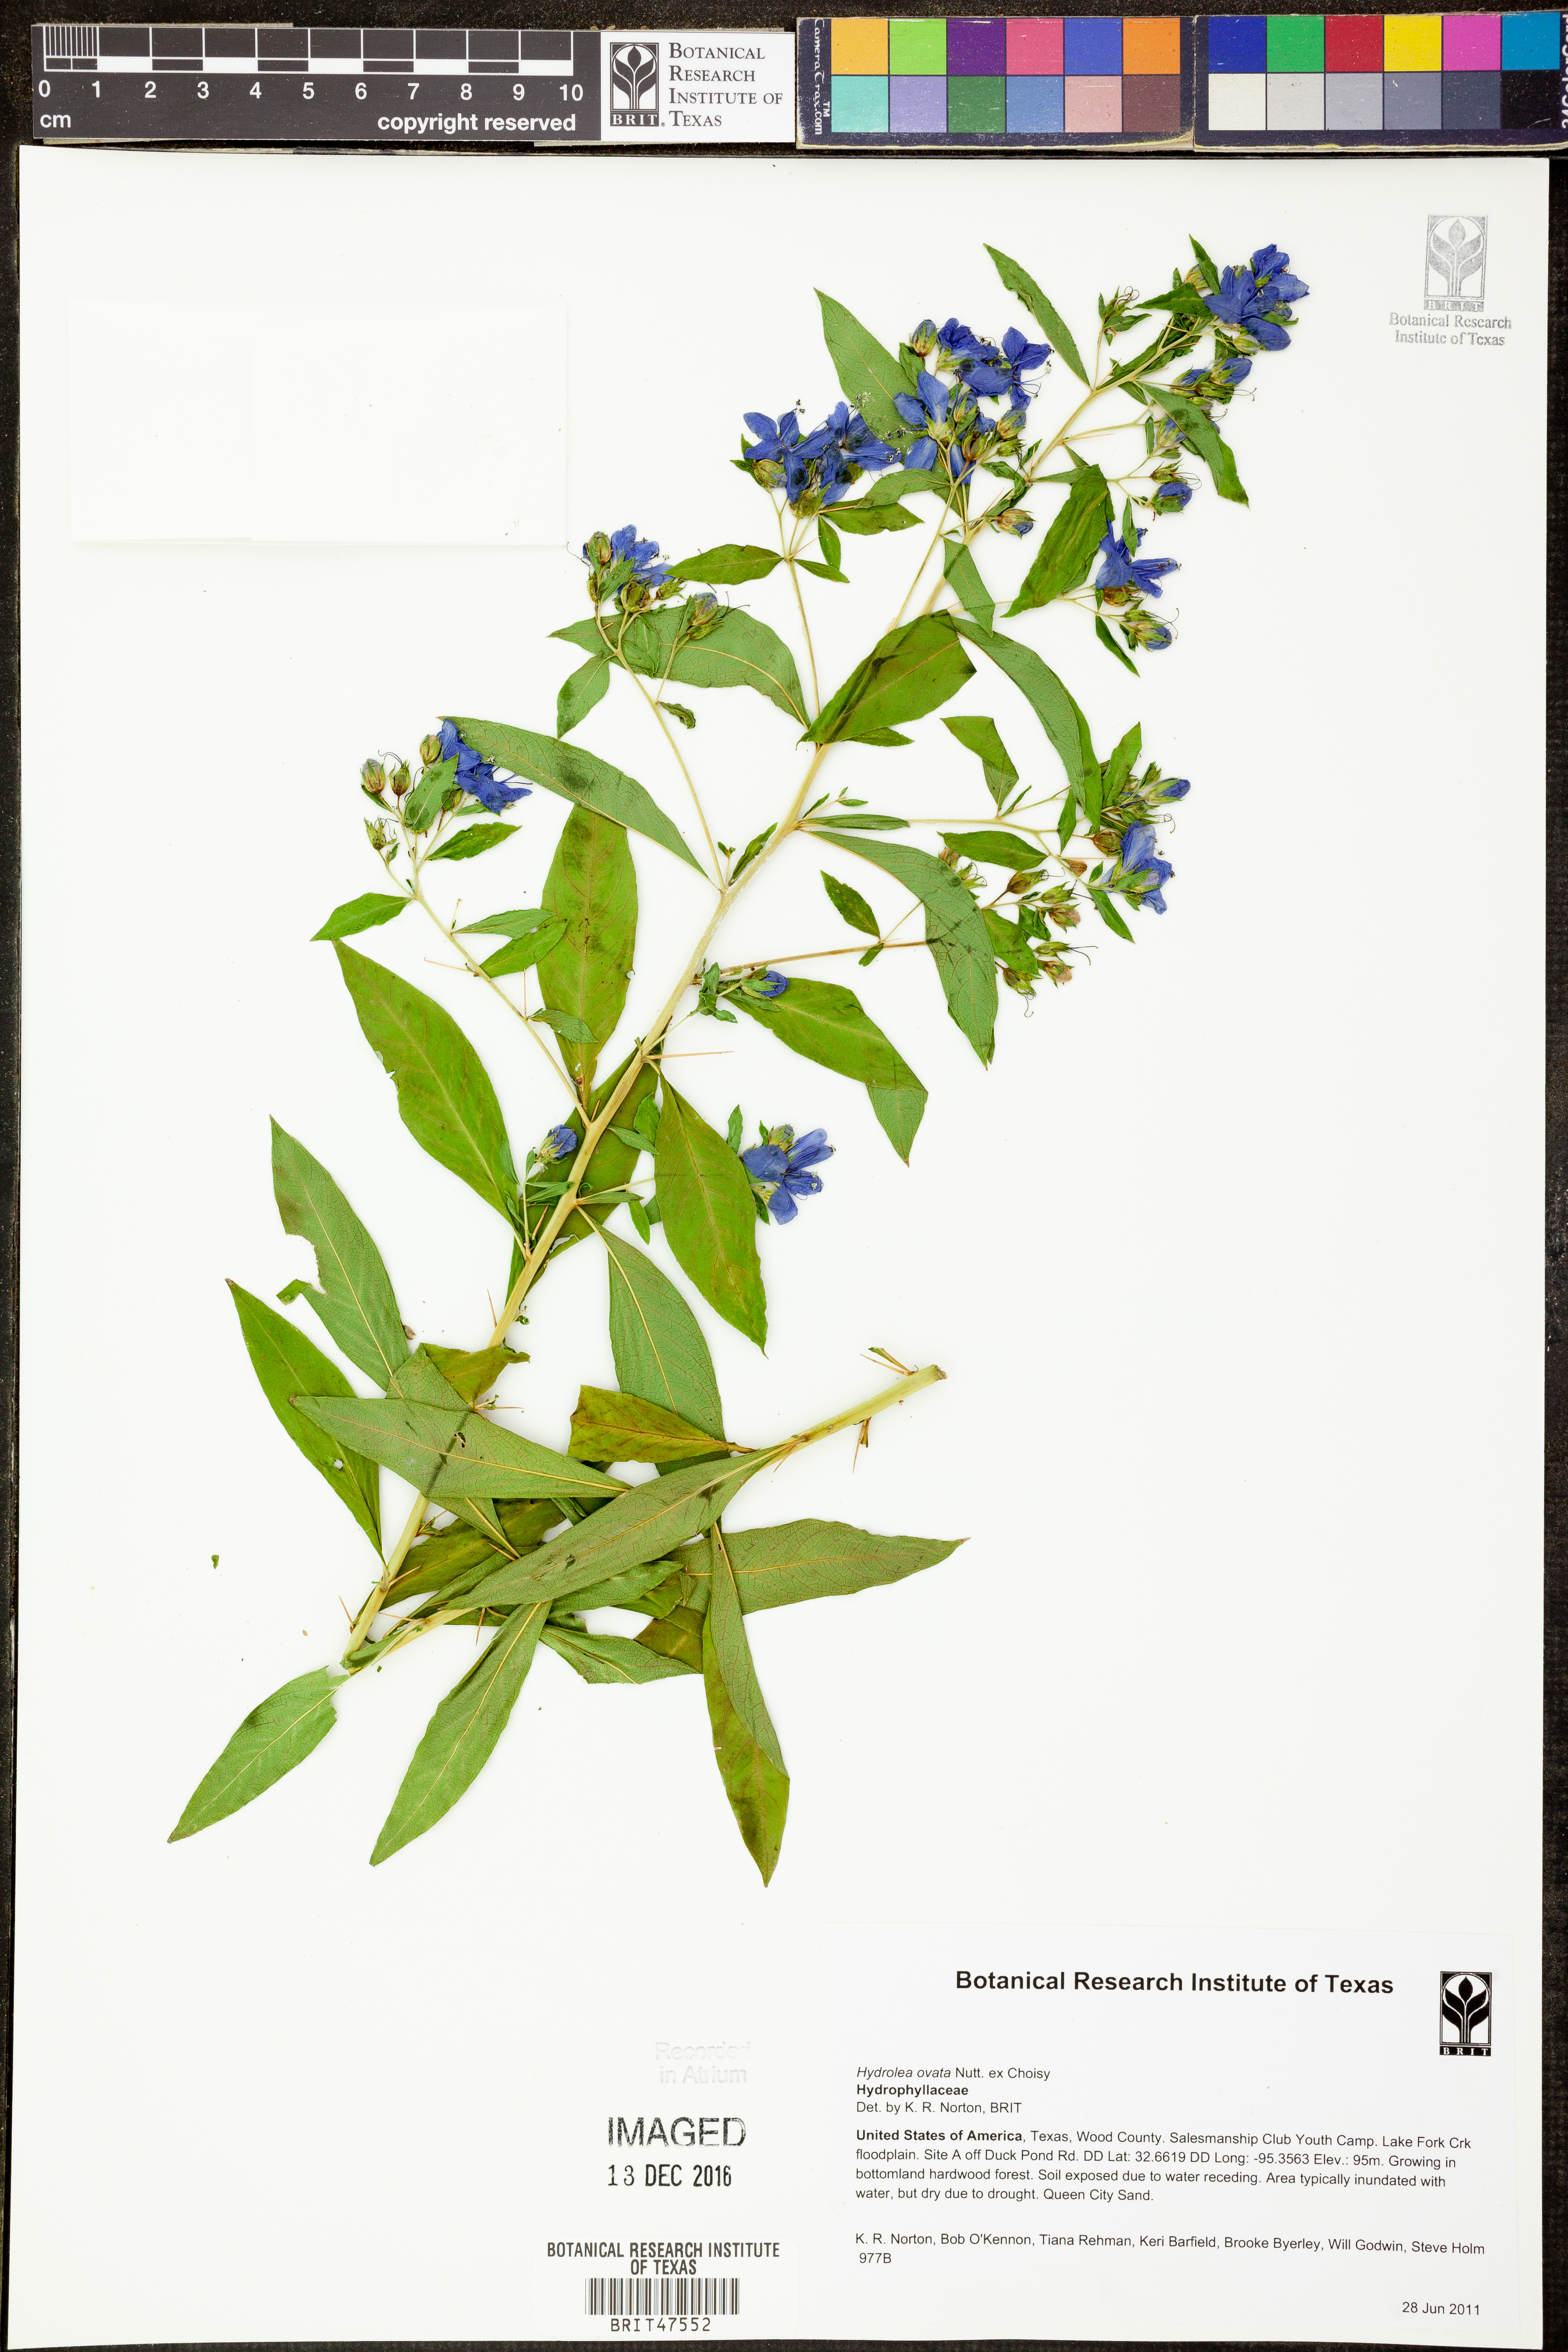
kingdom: Plantae
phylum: Tracheophyta
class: Magnoliopsida
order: Solanales
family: Hydroleaceae
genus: Hydrolea
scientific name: Hydrolea ovata
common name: Ovate false fiddleleaf
